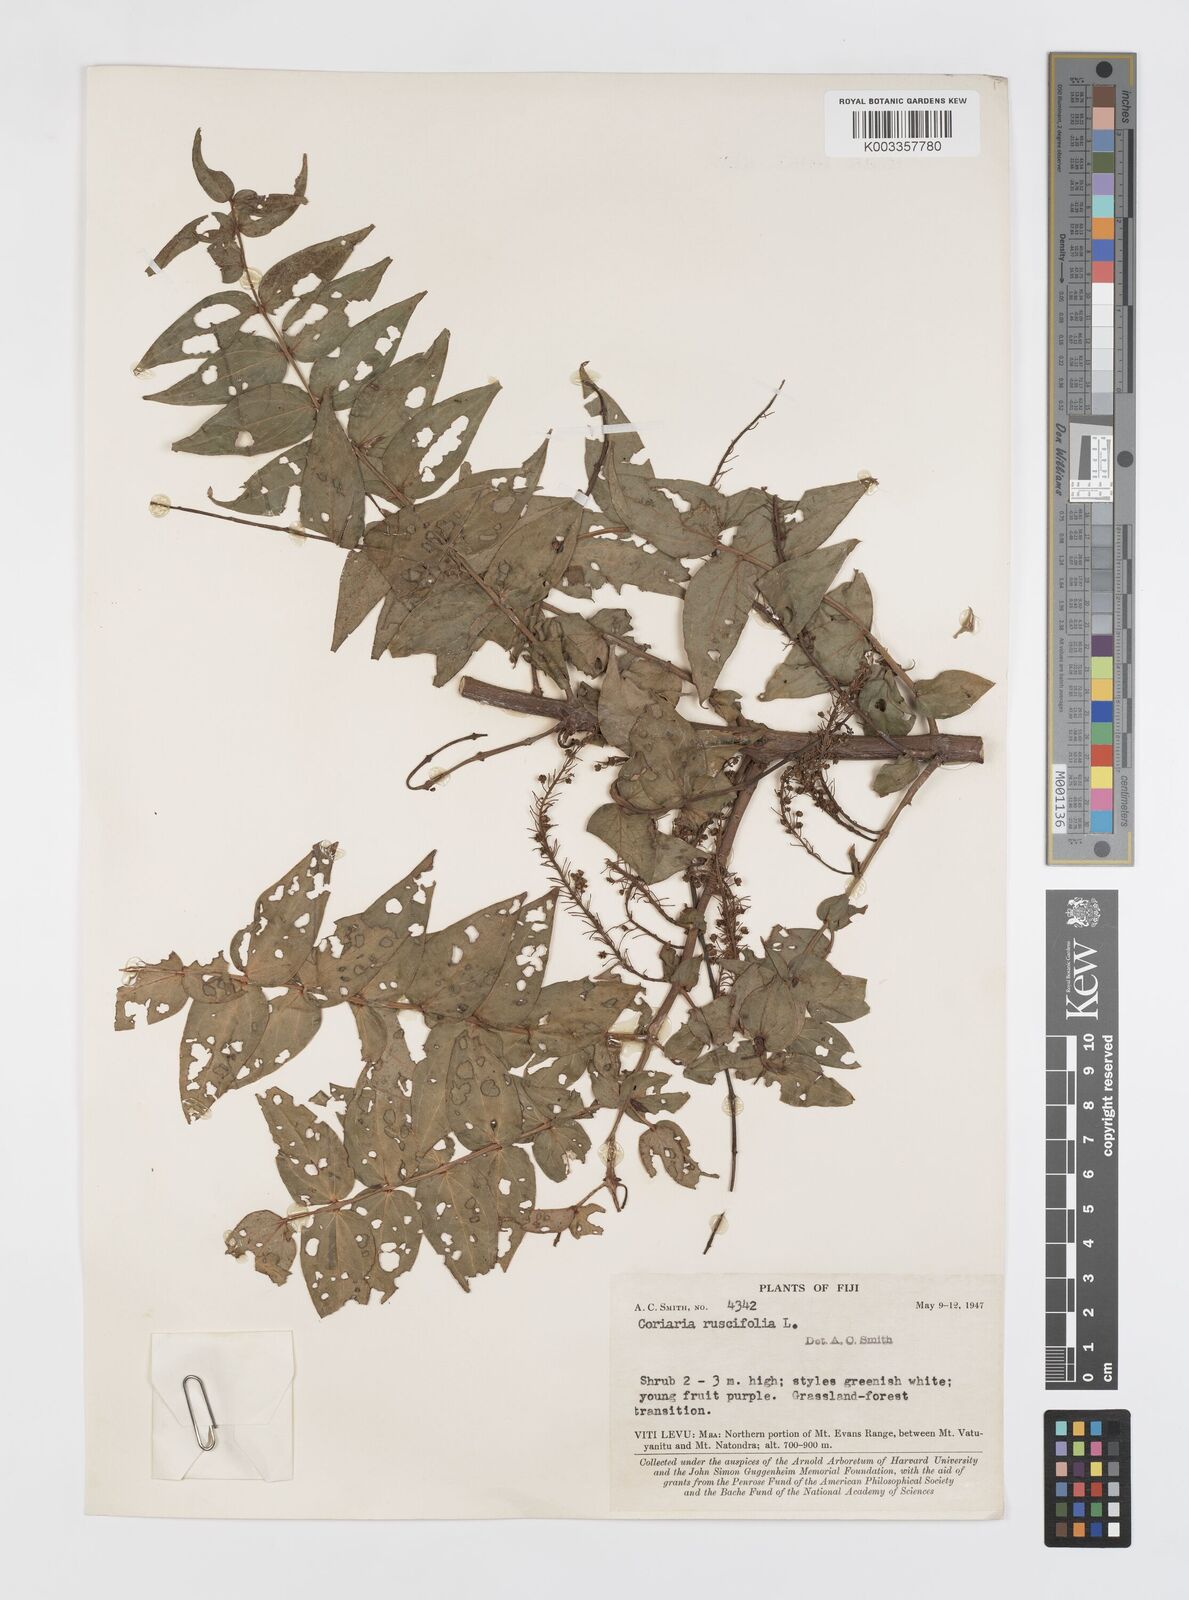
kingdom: Plantae
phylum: Tracheophyta
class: Magnoliopsida
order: Cucurbitales
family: Coriariaceae
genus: Coriaria
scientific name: Coriaria ruscifolia
